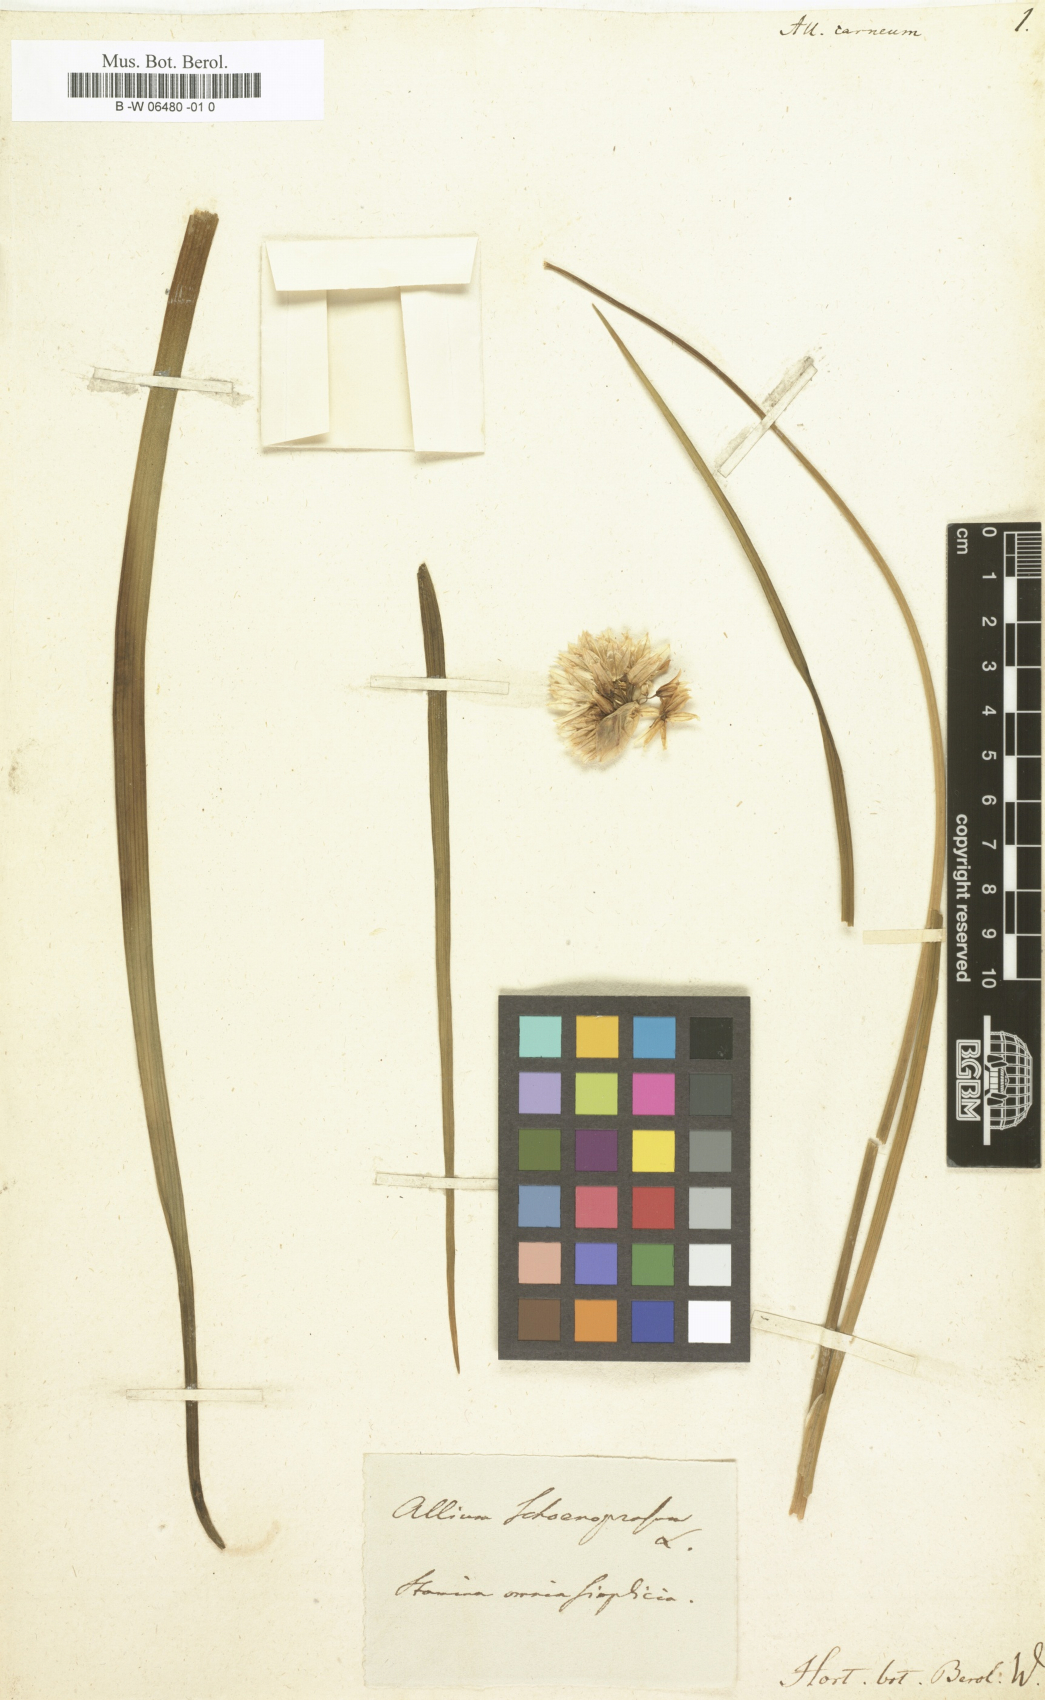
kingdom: Plantae
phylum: Tracheophyta
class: Liliopsida
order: Asparagales
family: Amaryllidaceae
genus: Allium
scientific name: Allium
